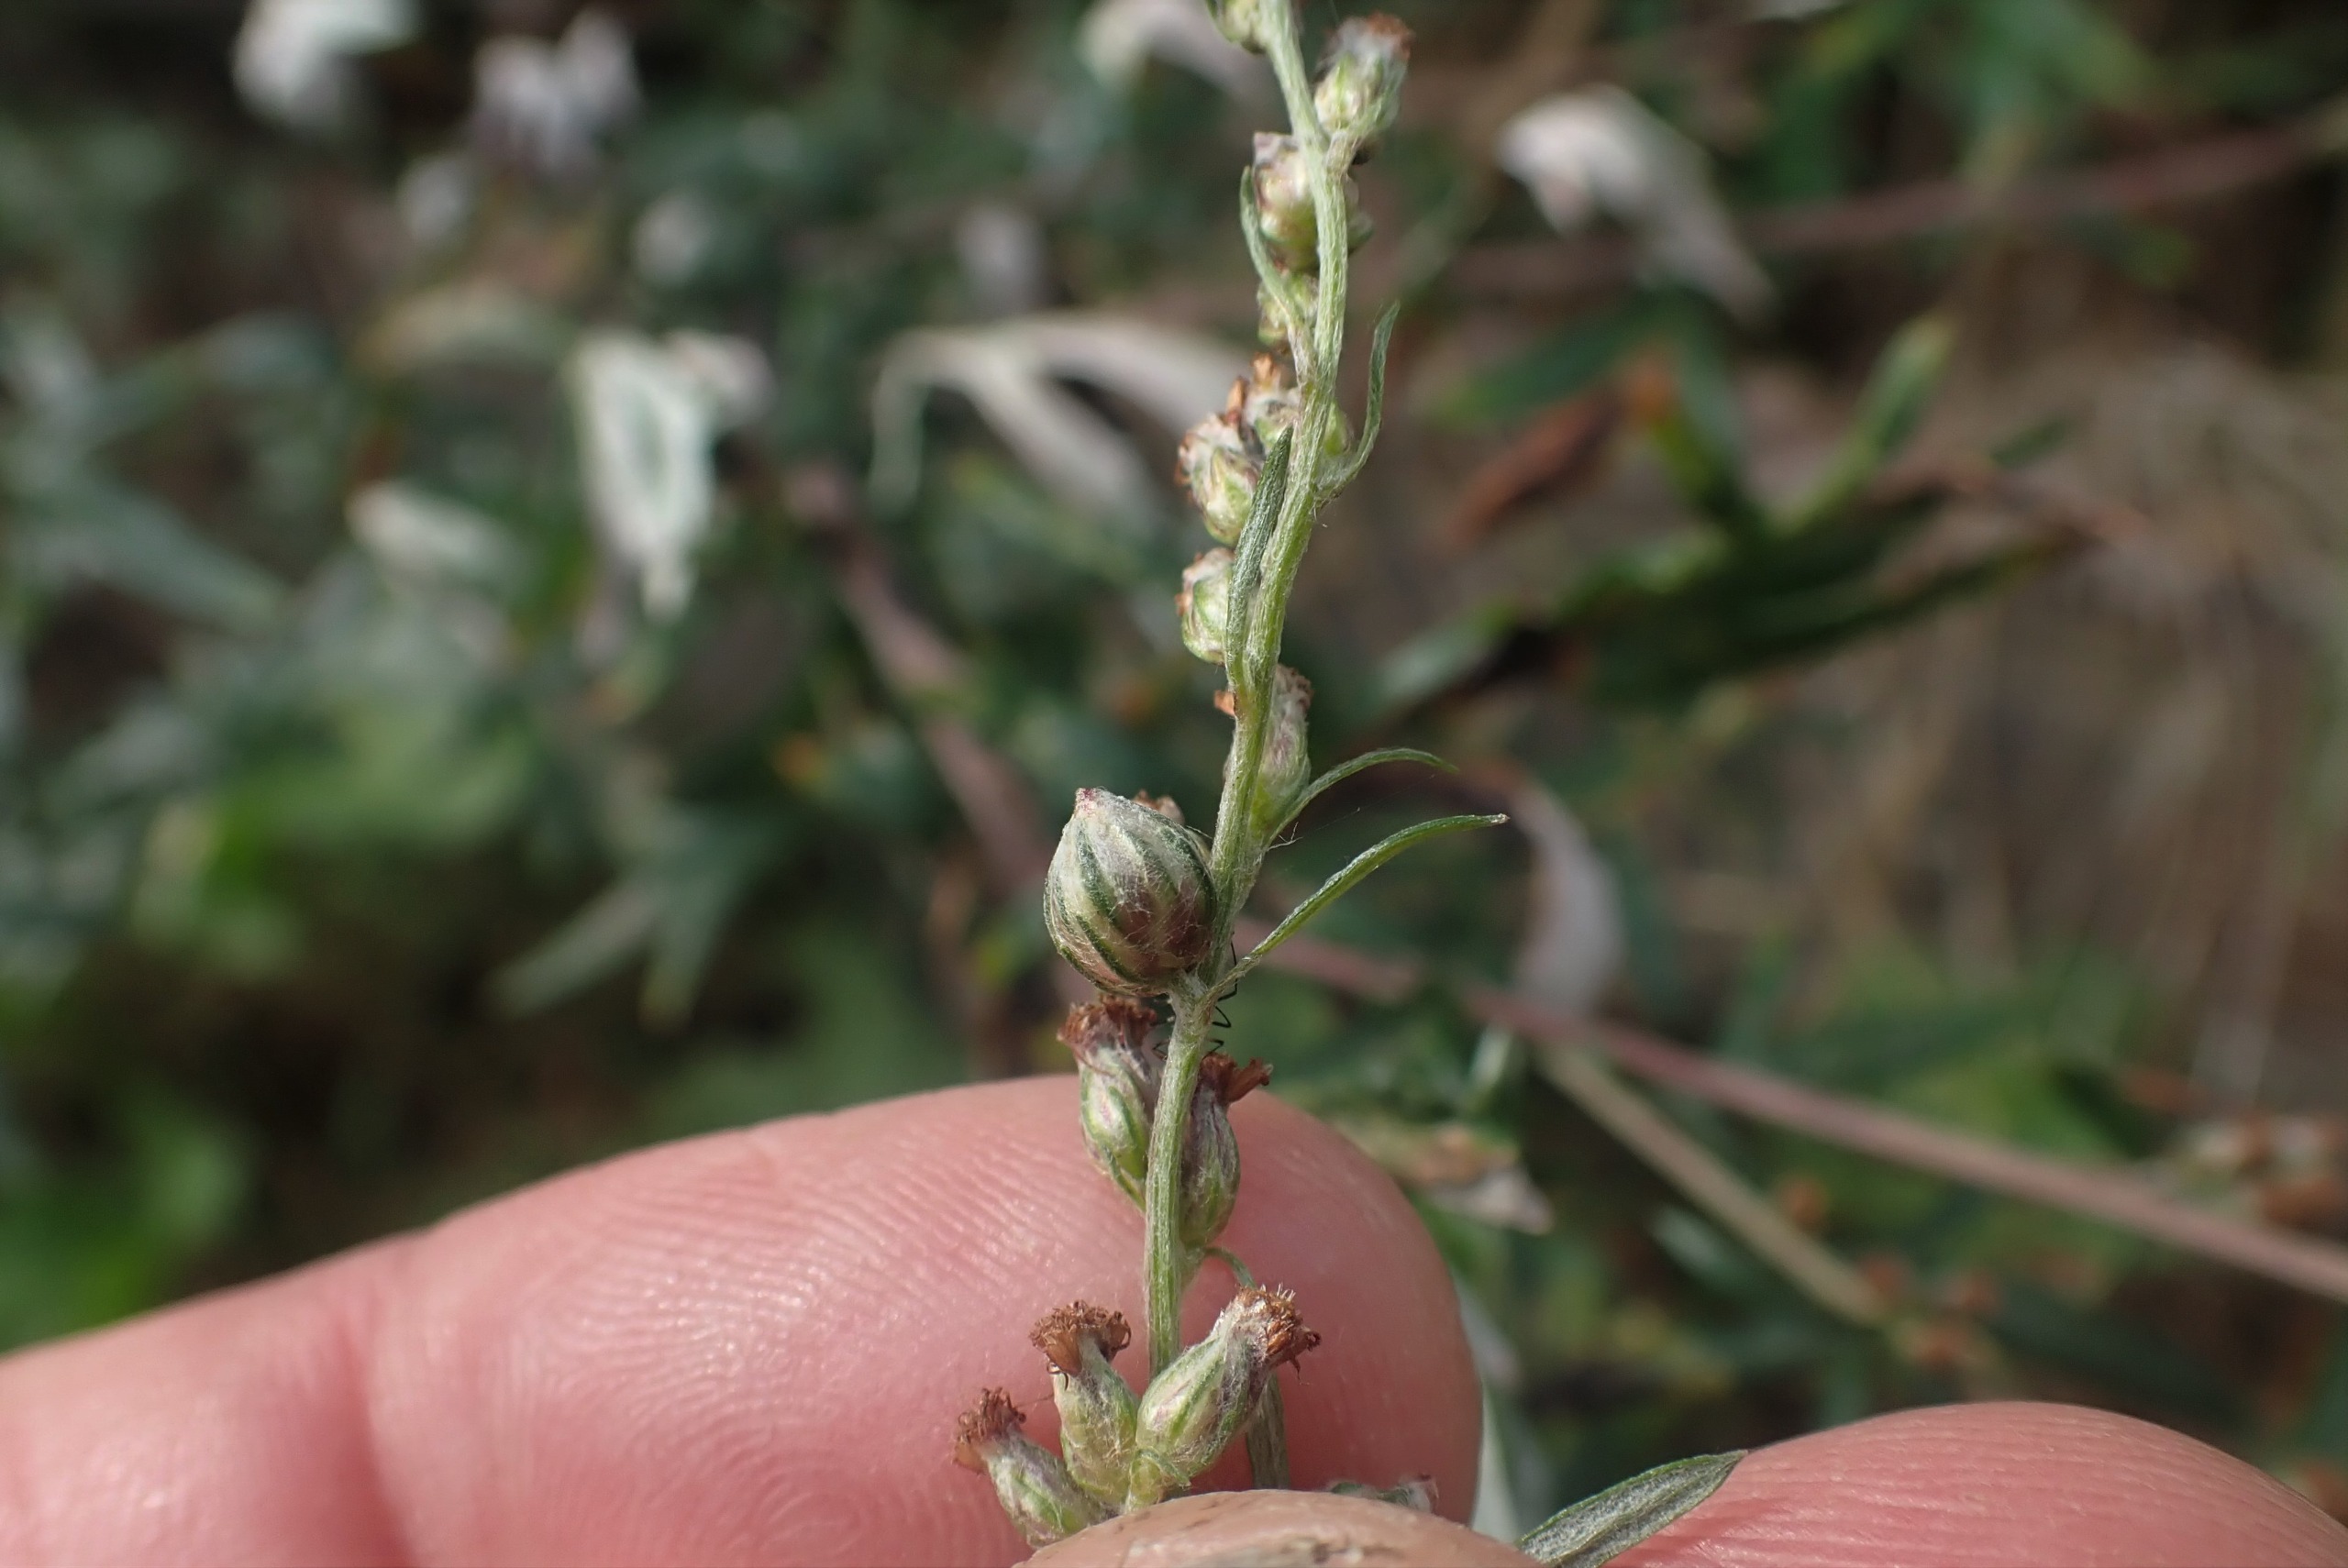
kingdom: Animalia
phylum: Arthropoda
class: Insecta
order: Diptera
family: Cecidomyiidae
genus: Ametrodiplosis
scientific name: Ametrodiplosis rudimentalis
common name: Bynkekurvgalmyg
